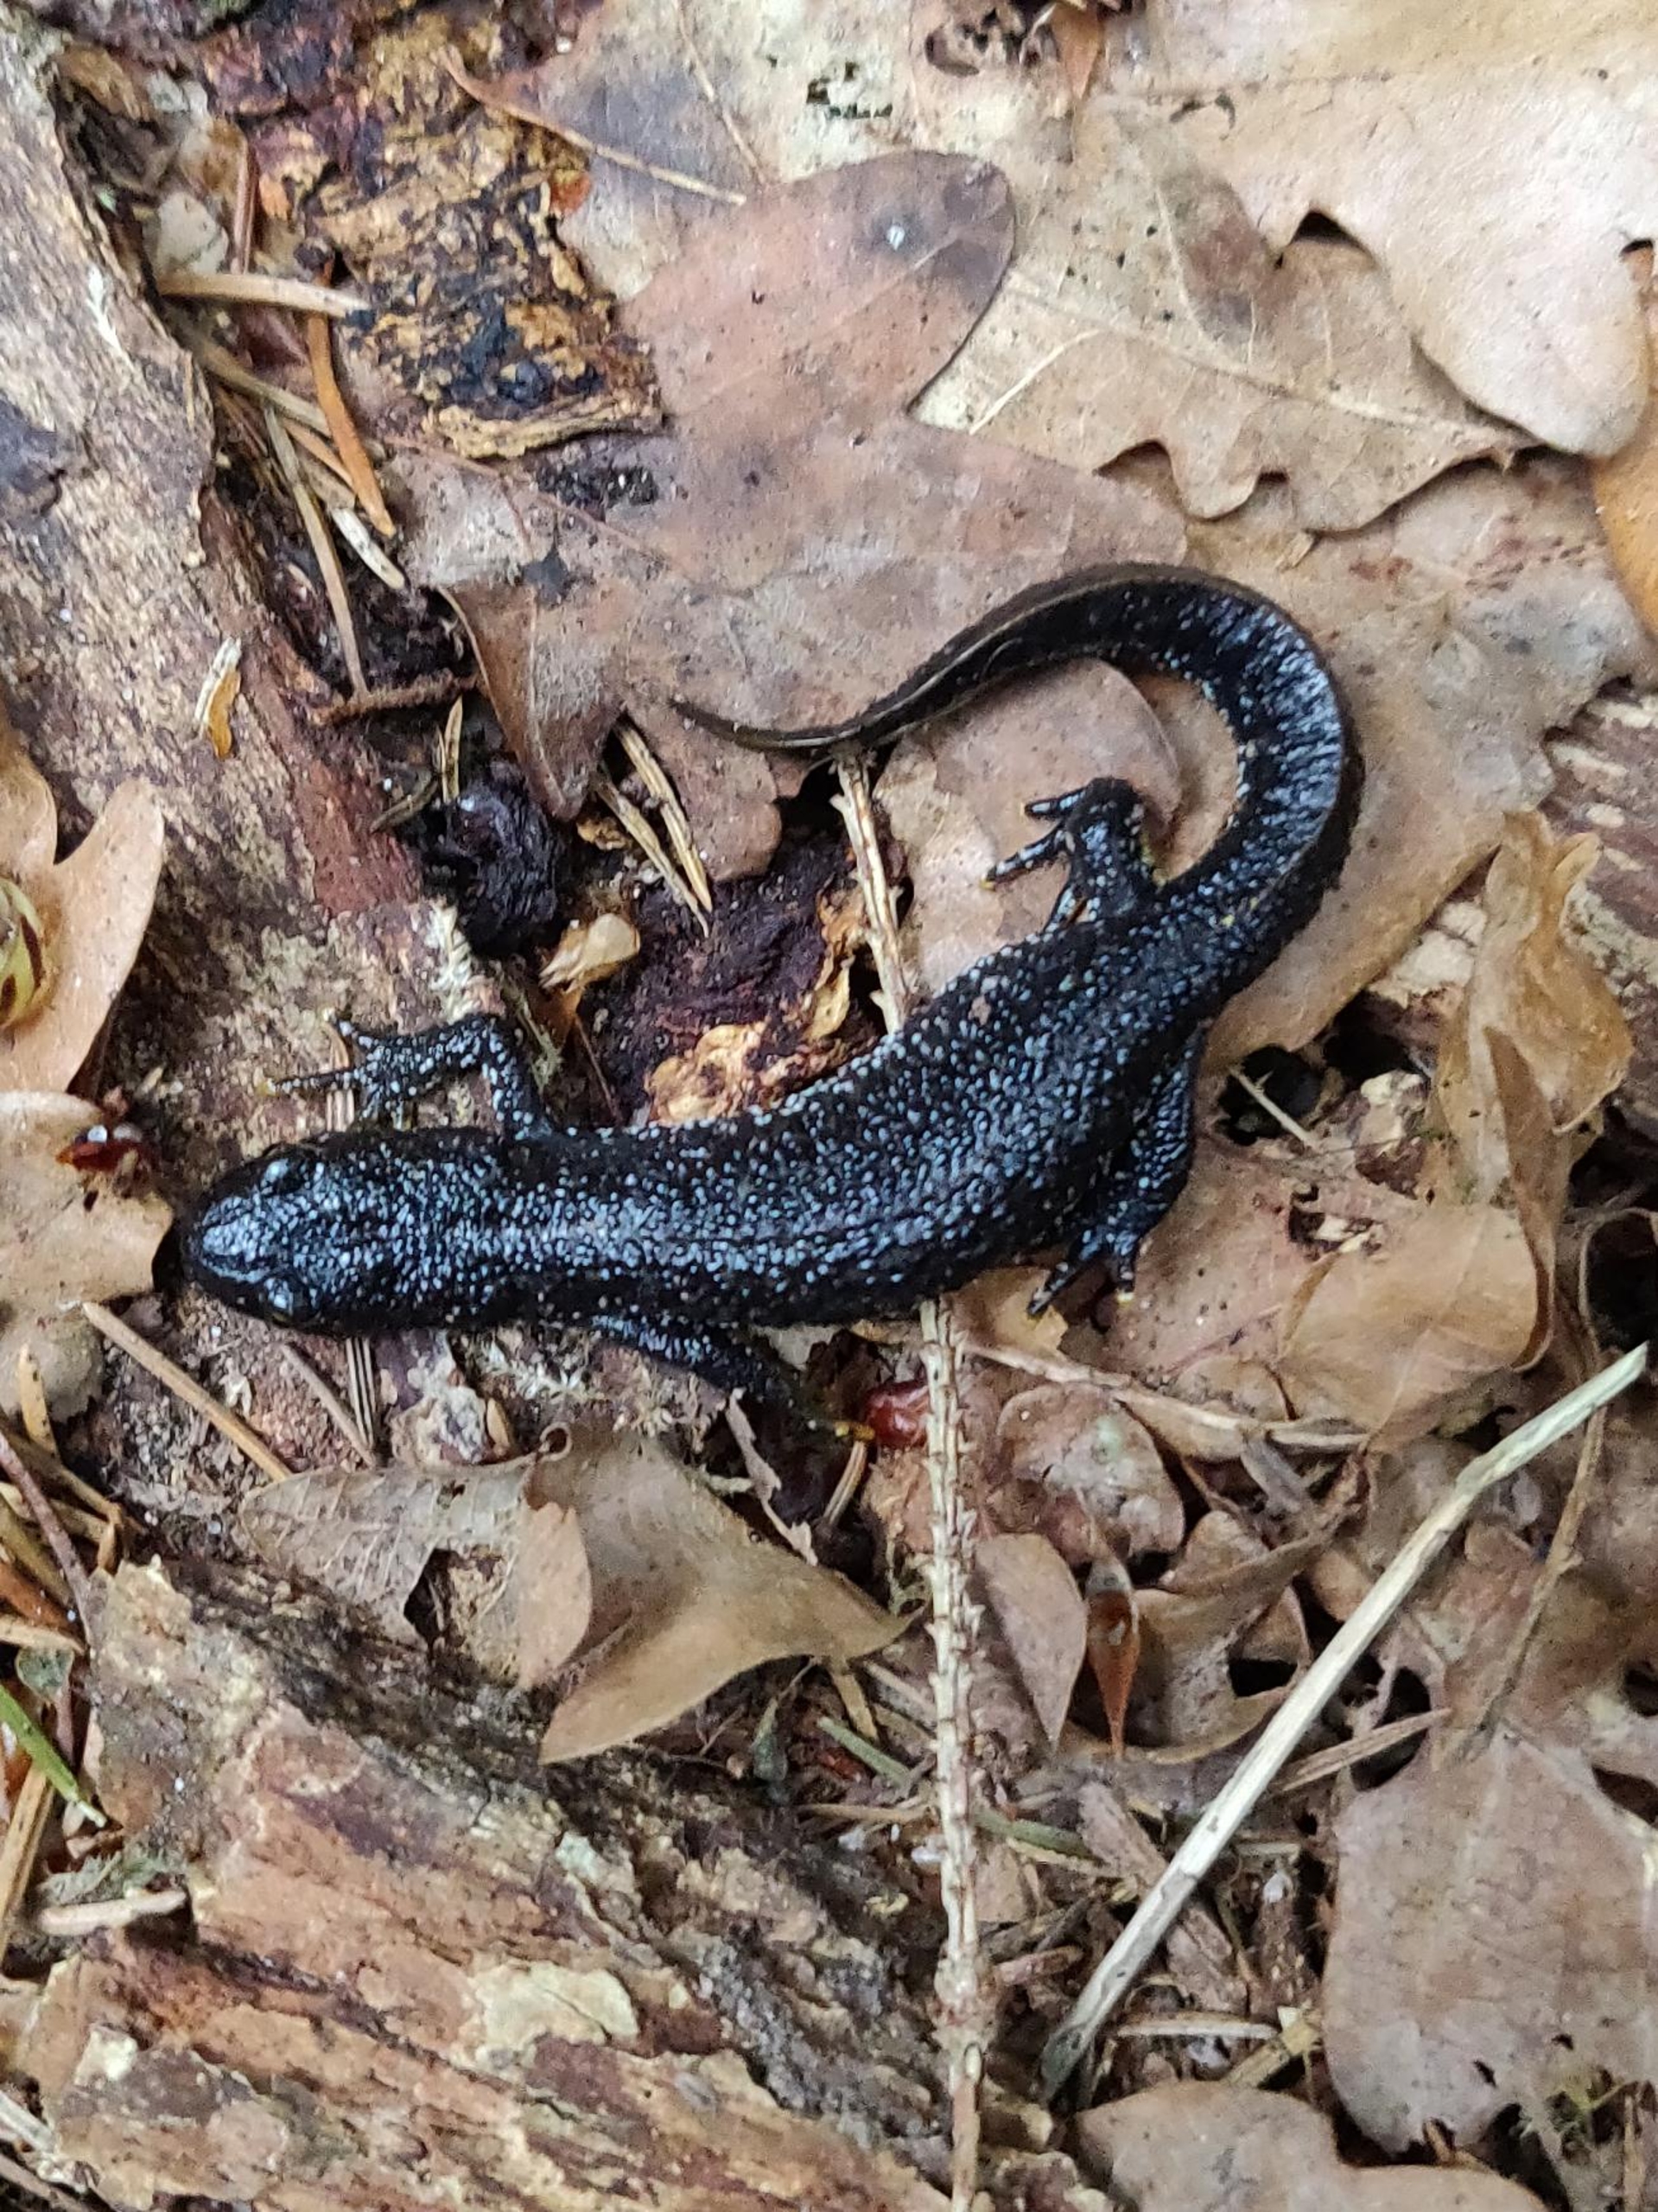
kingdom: Animalia
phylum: Chordata
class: Amphibia
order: Caudata
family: Salamandridae
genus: Triturus
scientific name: Triturus cristatus
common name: Stor vandsalamander
